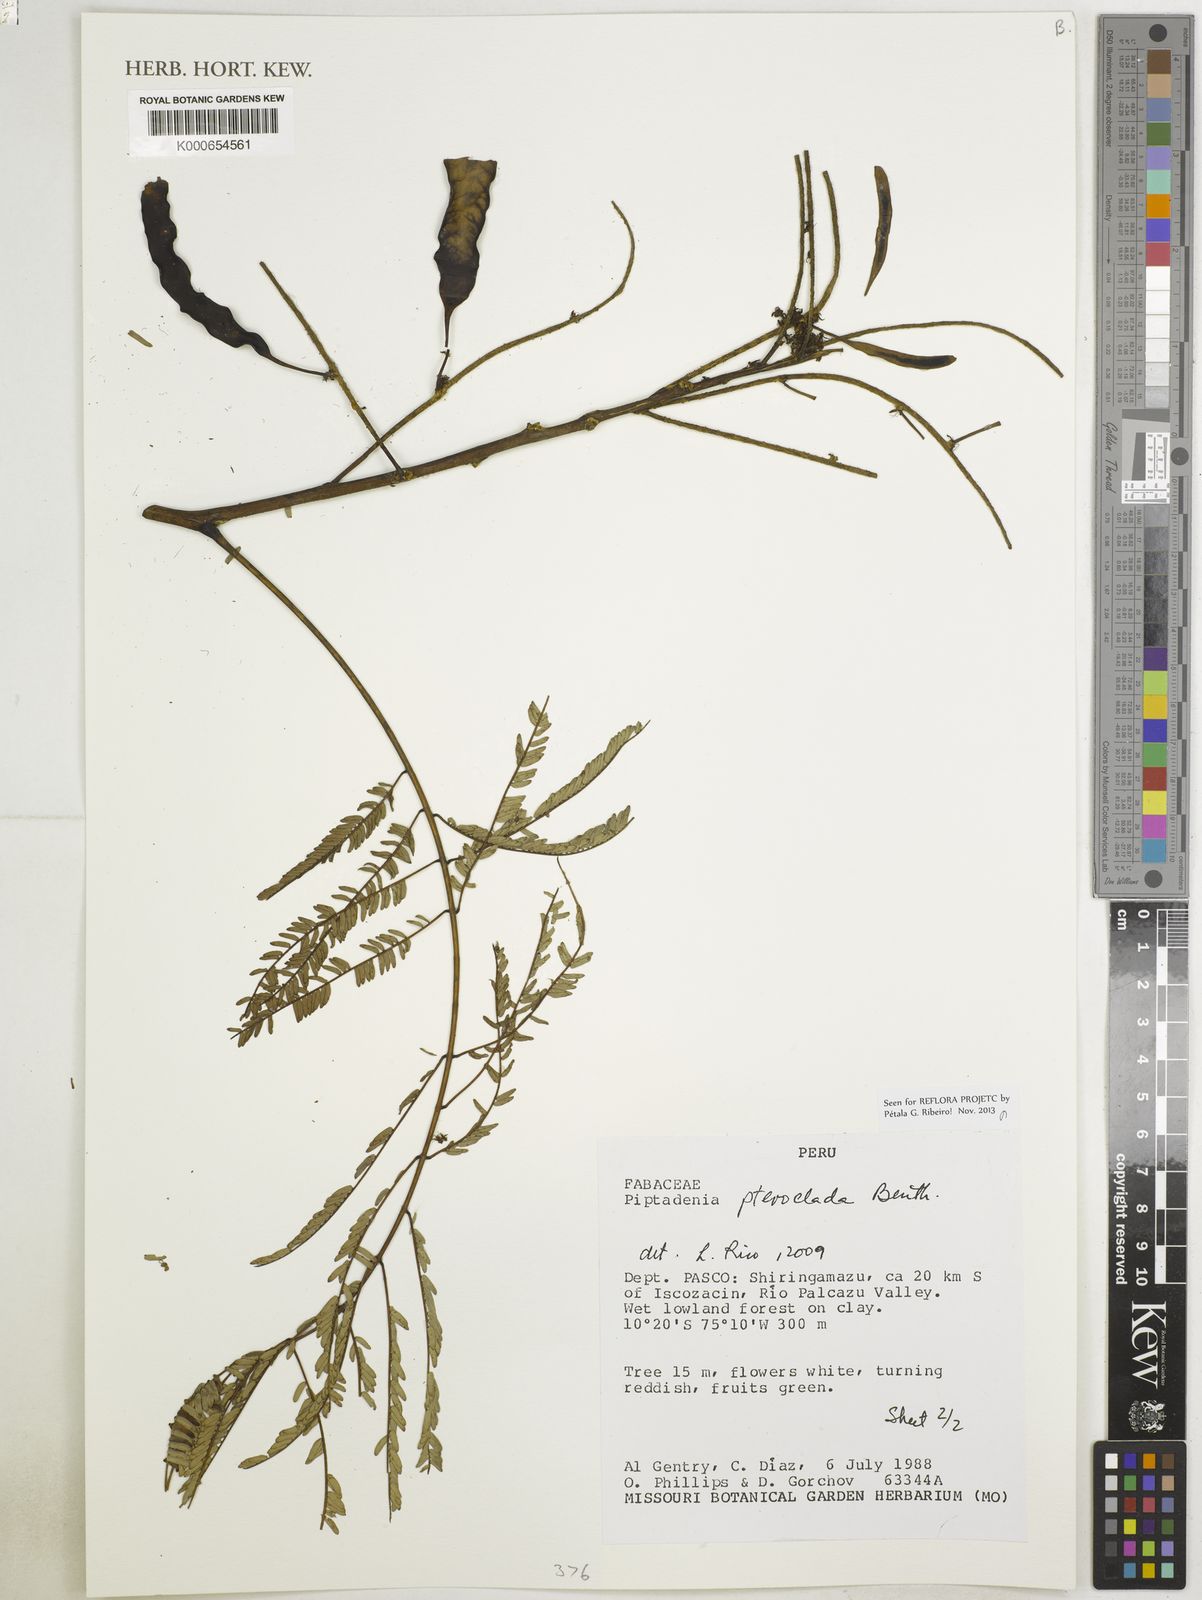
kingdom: Plantae
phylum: Tracheophyta
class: Magnoliopsida
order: Fabales
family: Fabaceae
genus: Piptadenia
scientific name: Piptadenia pteroclada
